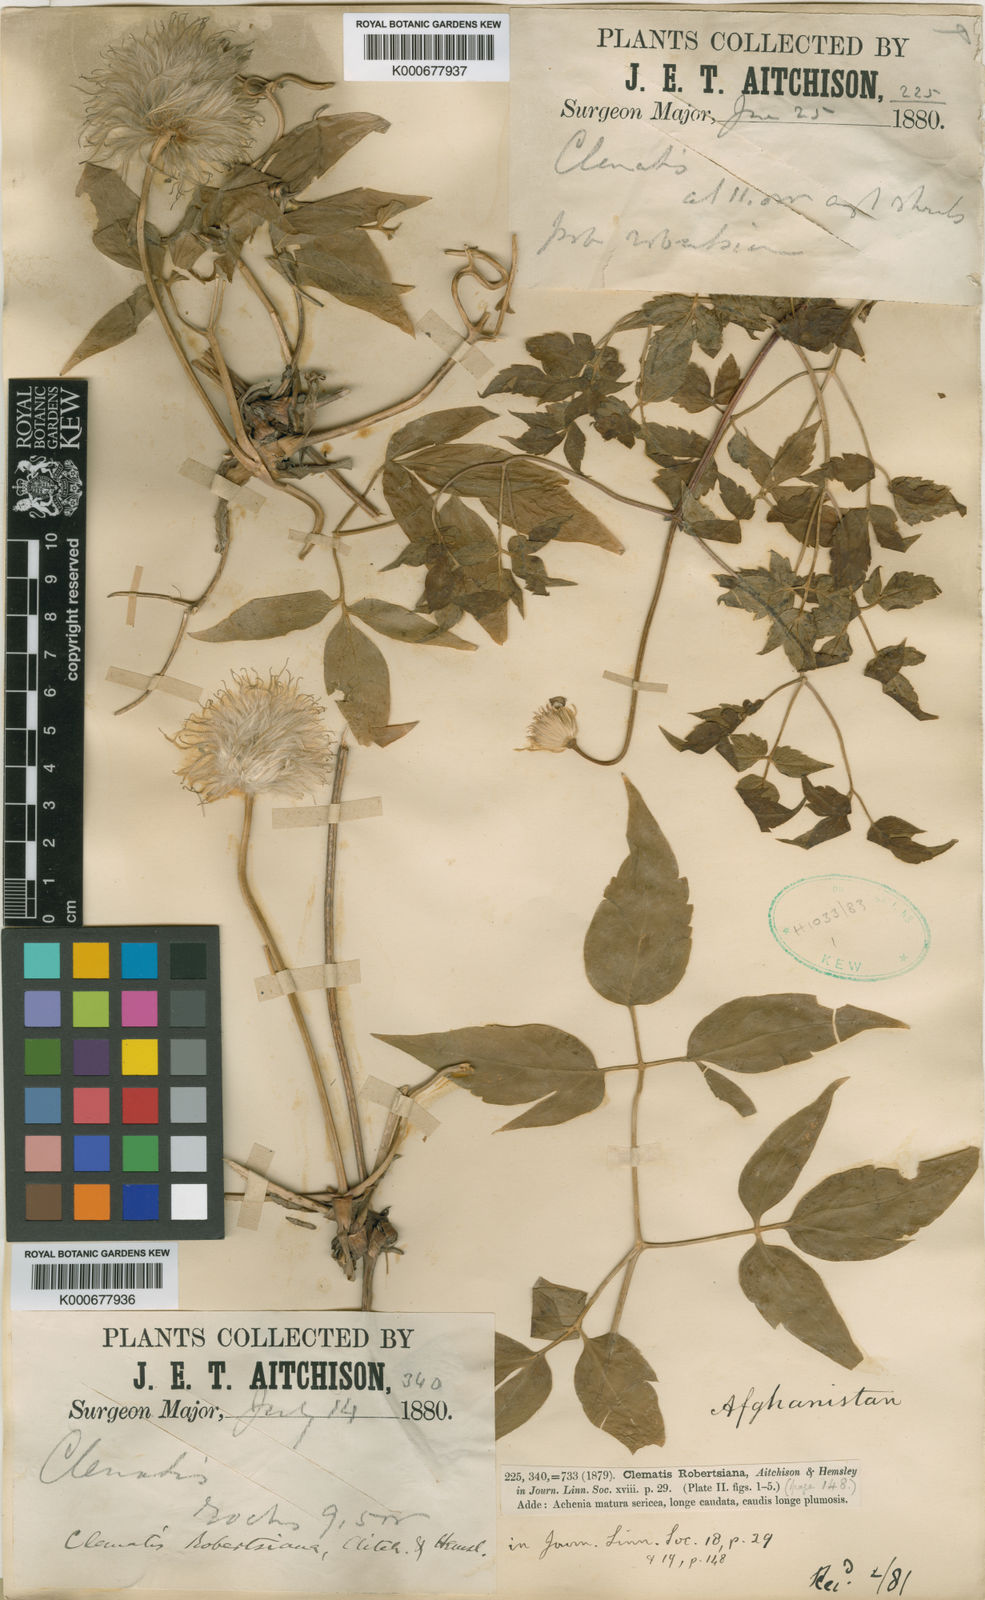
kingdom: Plantae
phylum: Tracheophyta
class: Magnoliopsida
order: Ranunculales
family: Ranunculaceae
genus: Clematis
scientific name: Clematis robertsiana
